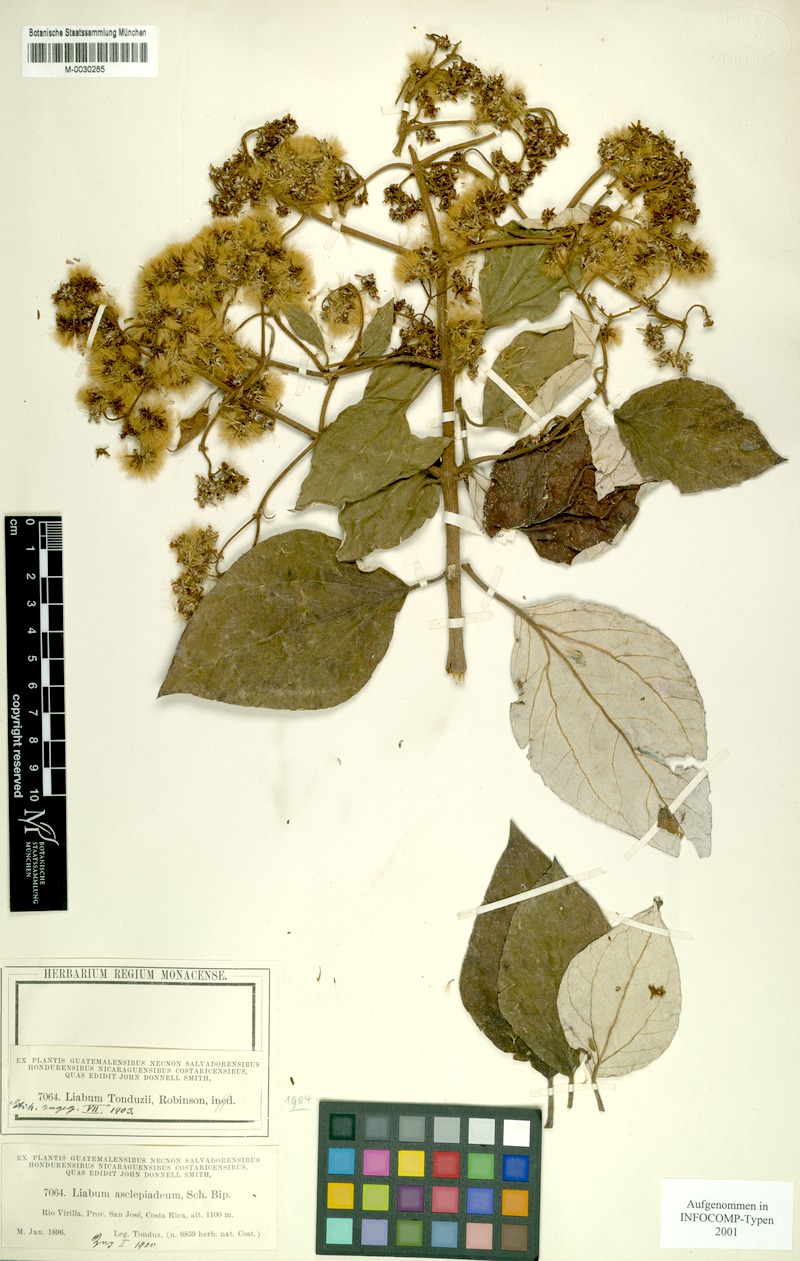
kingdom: Plantae
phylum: Tracheophyta
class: Magnoliopsida
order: Asterales
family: Asteraceae
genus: Sinclairia
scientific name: Sinclairia tonduzii
